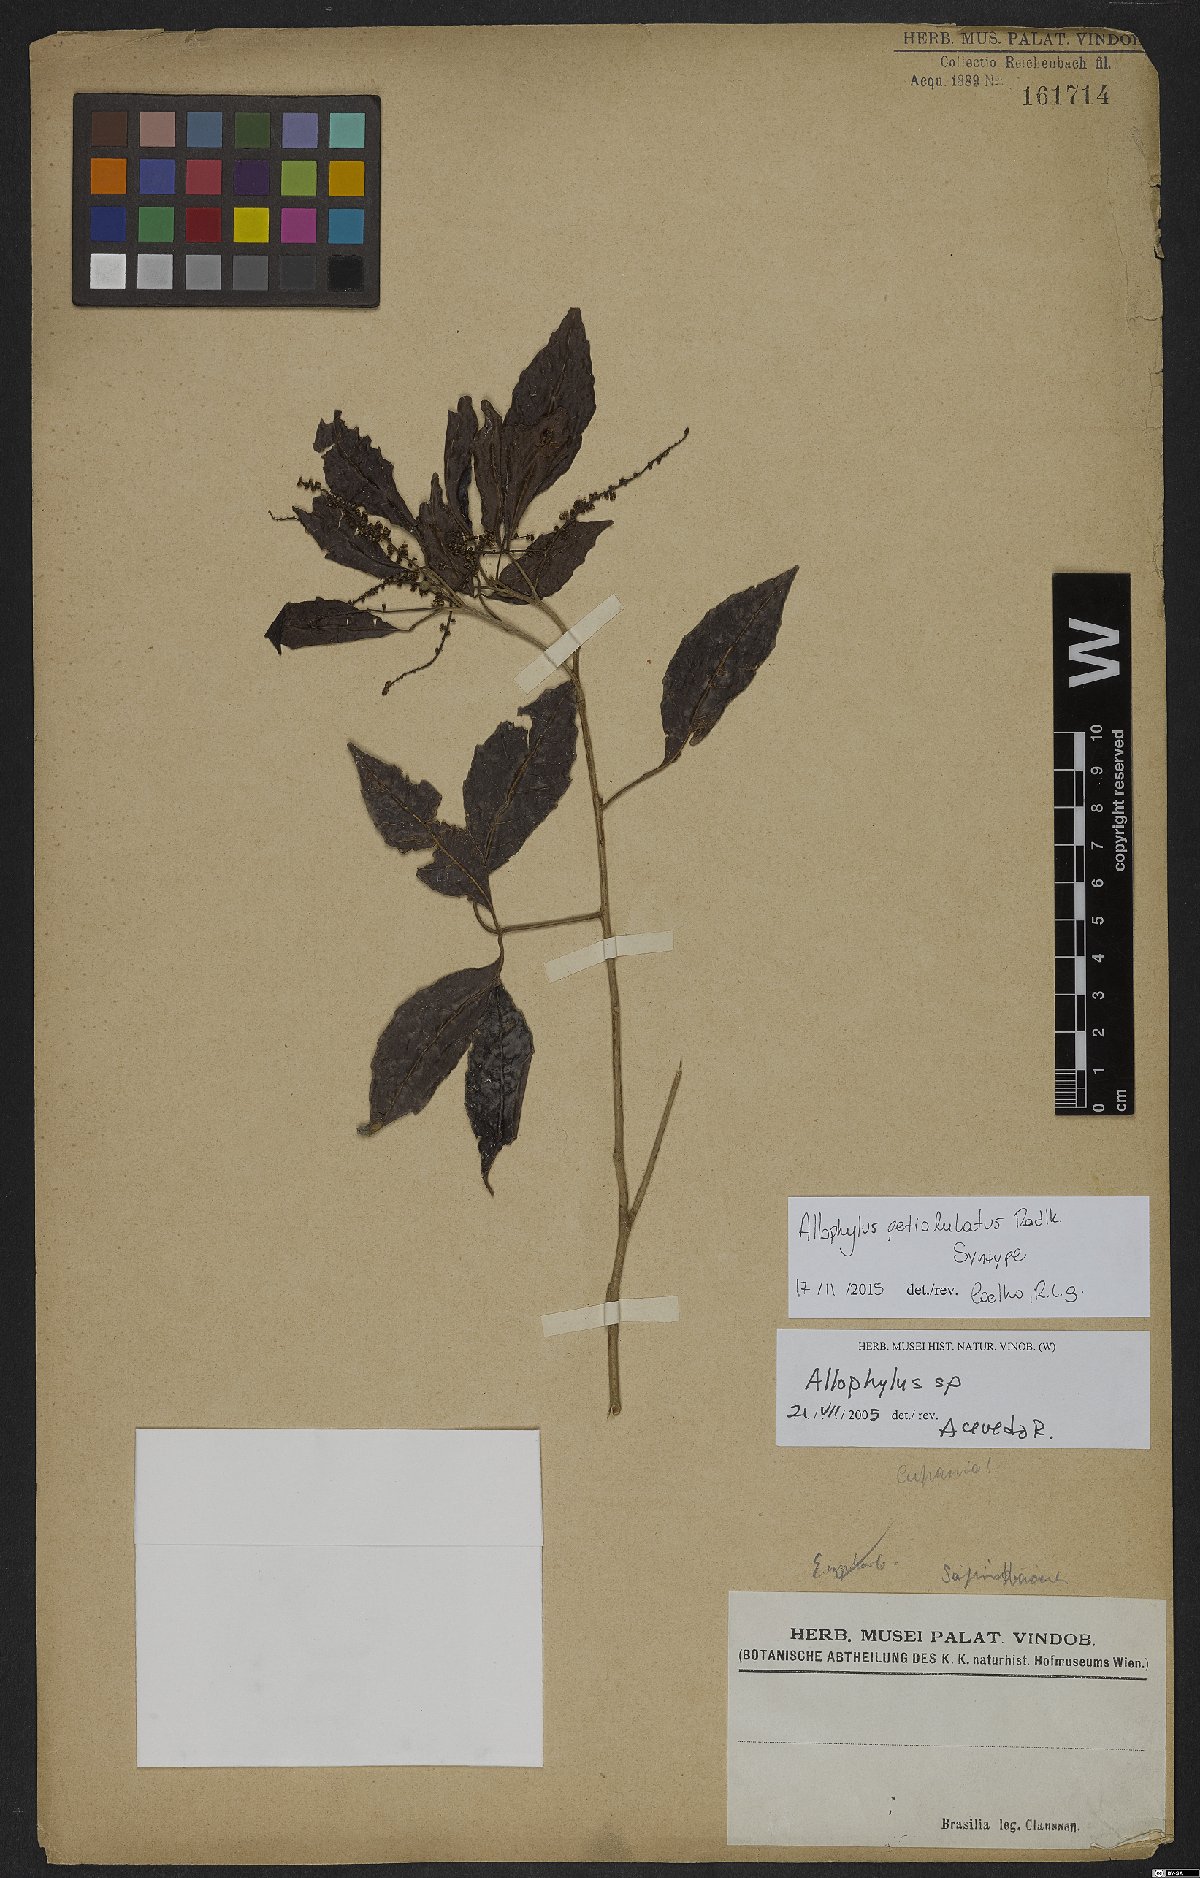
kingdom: Plantae
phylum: Tracheophyta
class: Magnoliopsida
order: Sapindales
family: Sapindaceae
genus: Allophylus
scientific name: Allophylus petiolulatus
